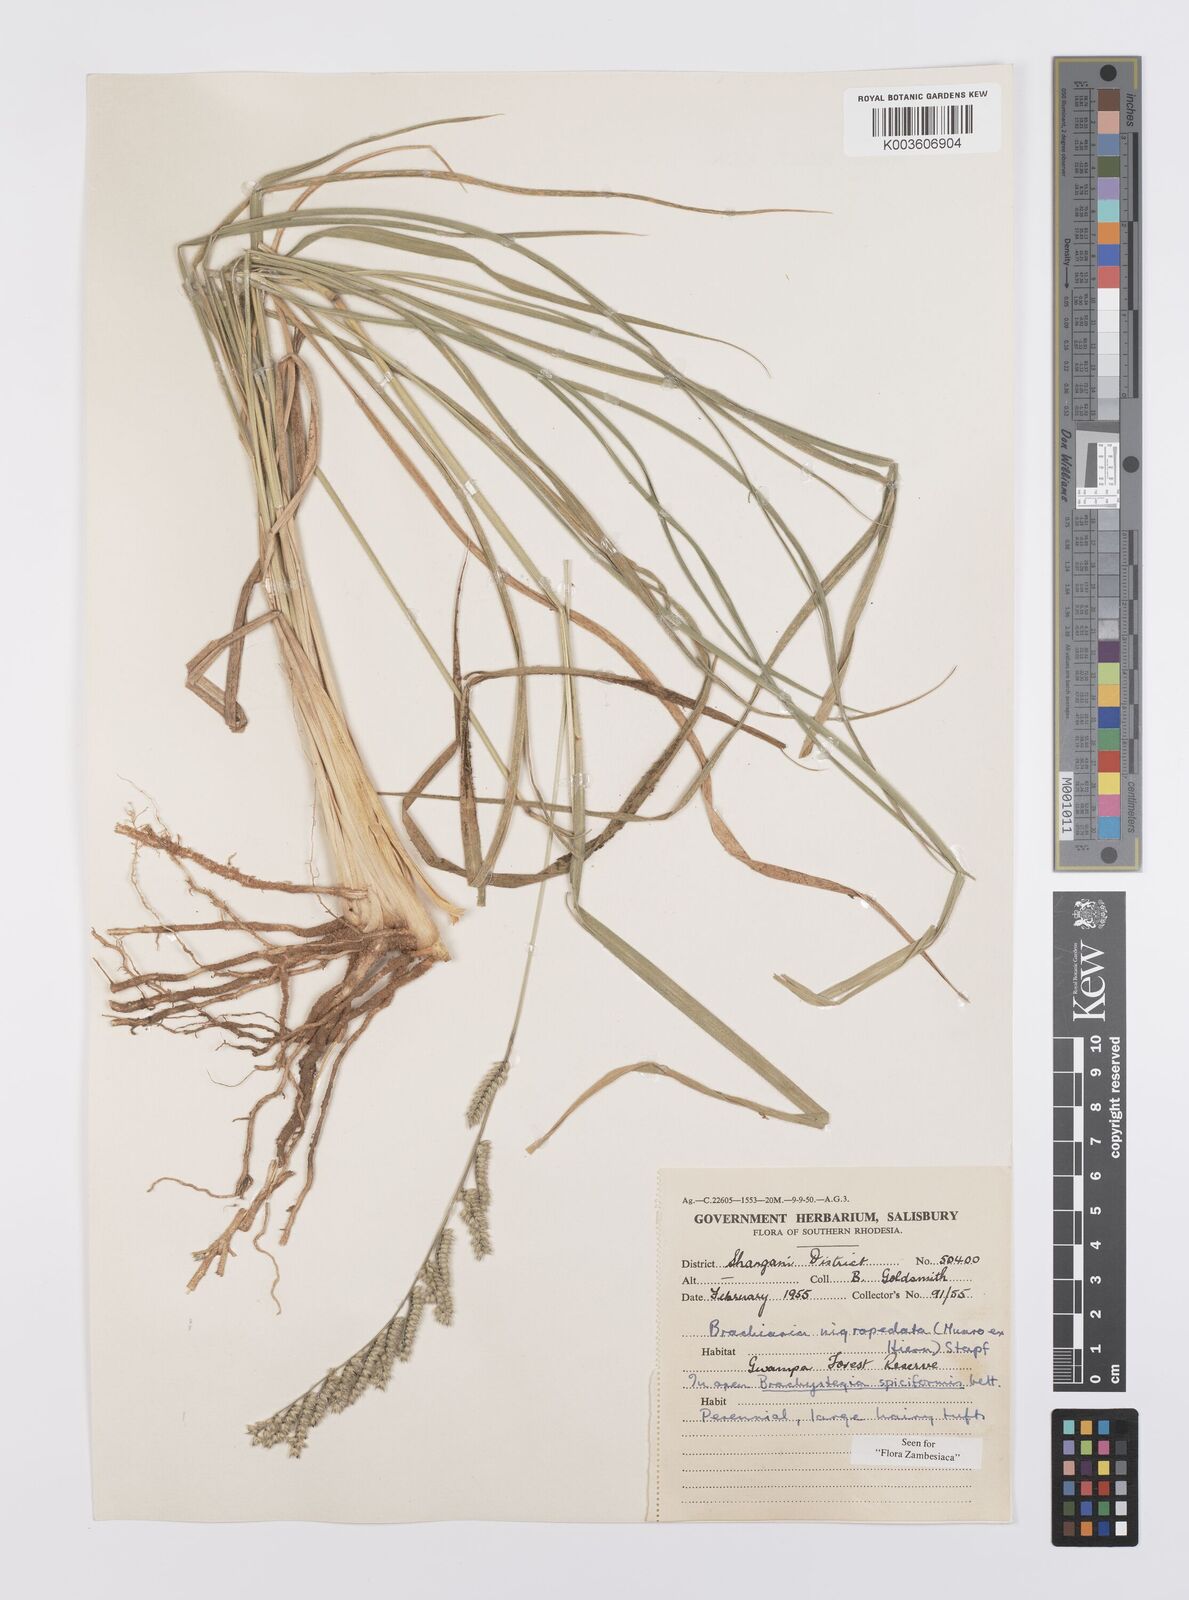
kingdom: Plantae
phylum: Tracheophyta
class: Liliopsida
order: Poales
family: Poaceae
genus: Urochloa
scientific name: Urochloa nigropedata
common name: Spotted signal grass
